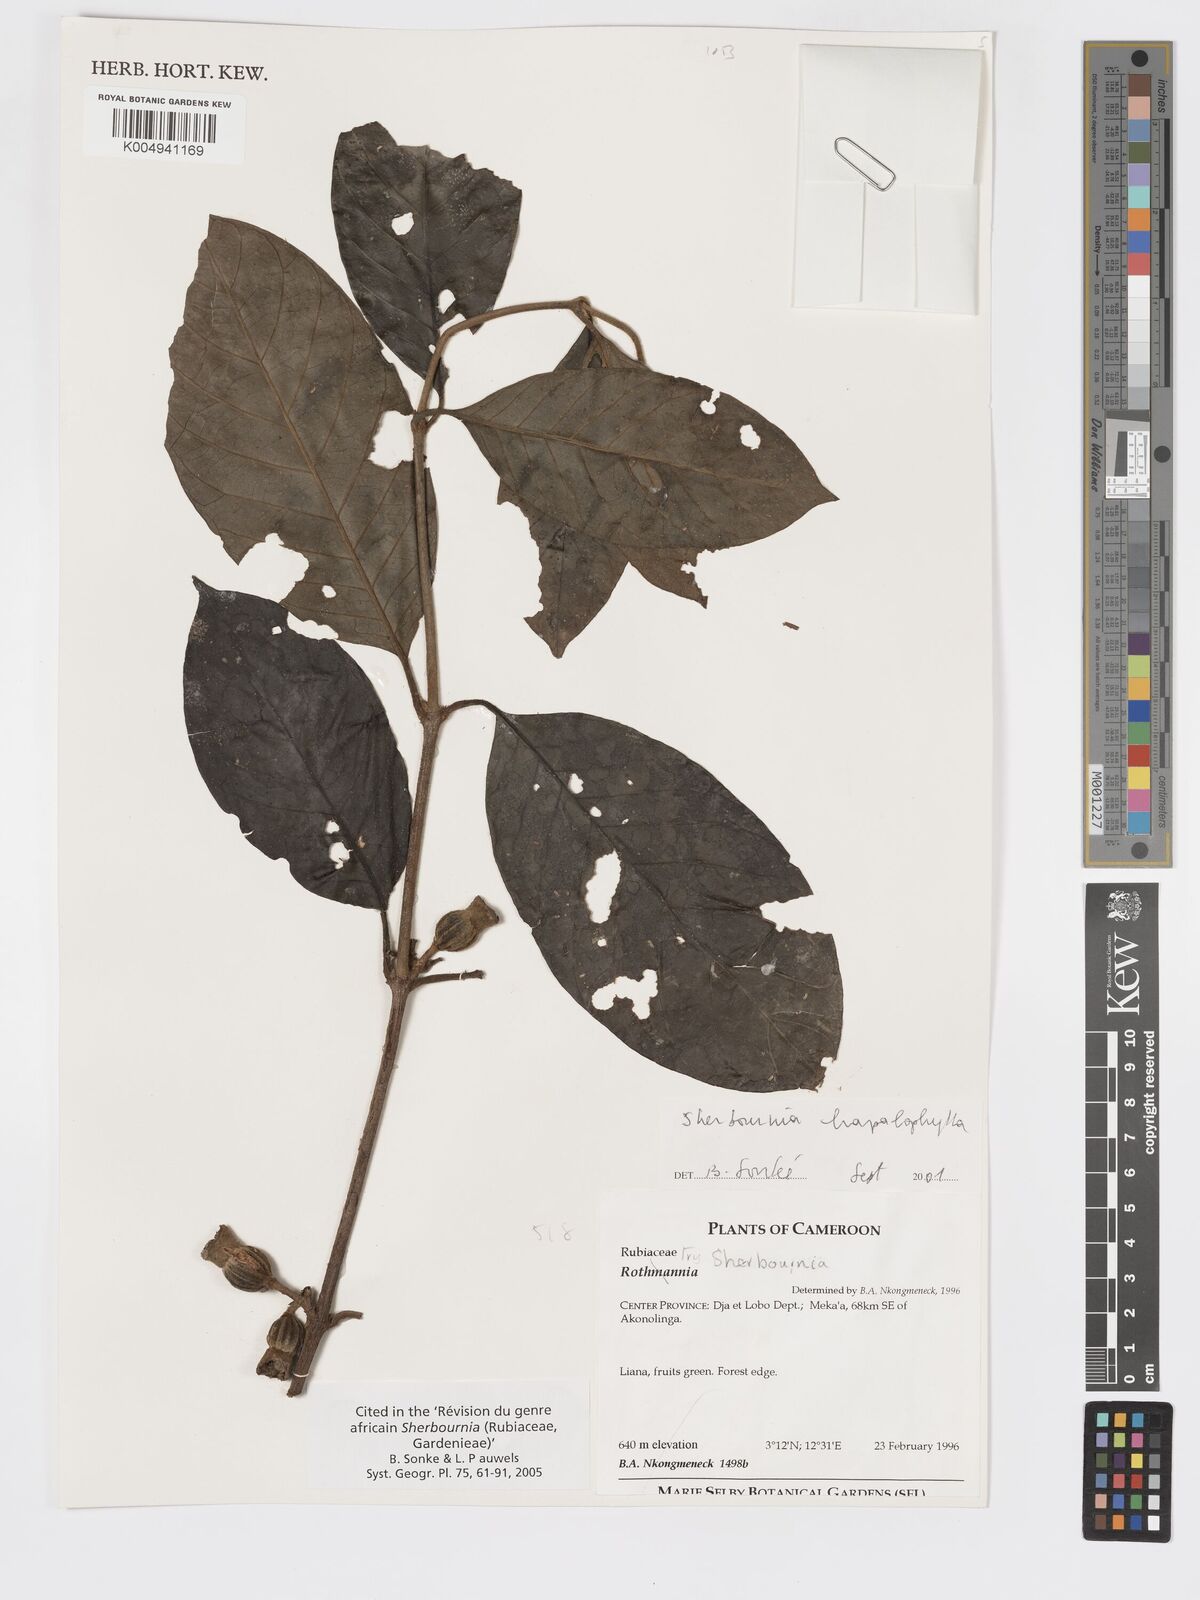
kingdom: Plantae
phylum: Tracheophyta
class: Magnoliopsida
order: Gentianales
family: Rubiaceae
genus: Sherbournia
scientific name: Sherbournia hapalophylla
